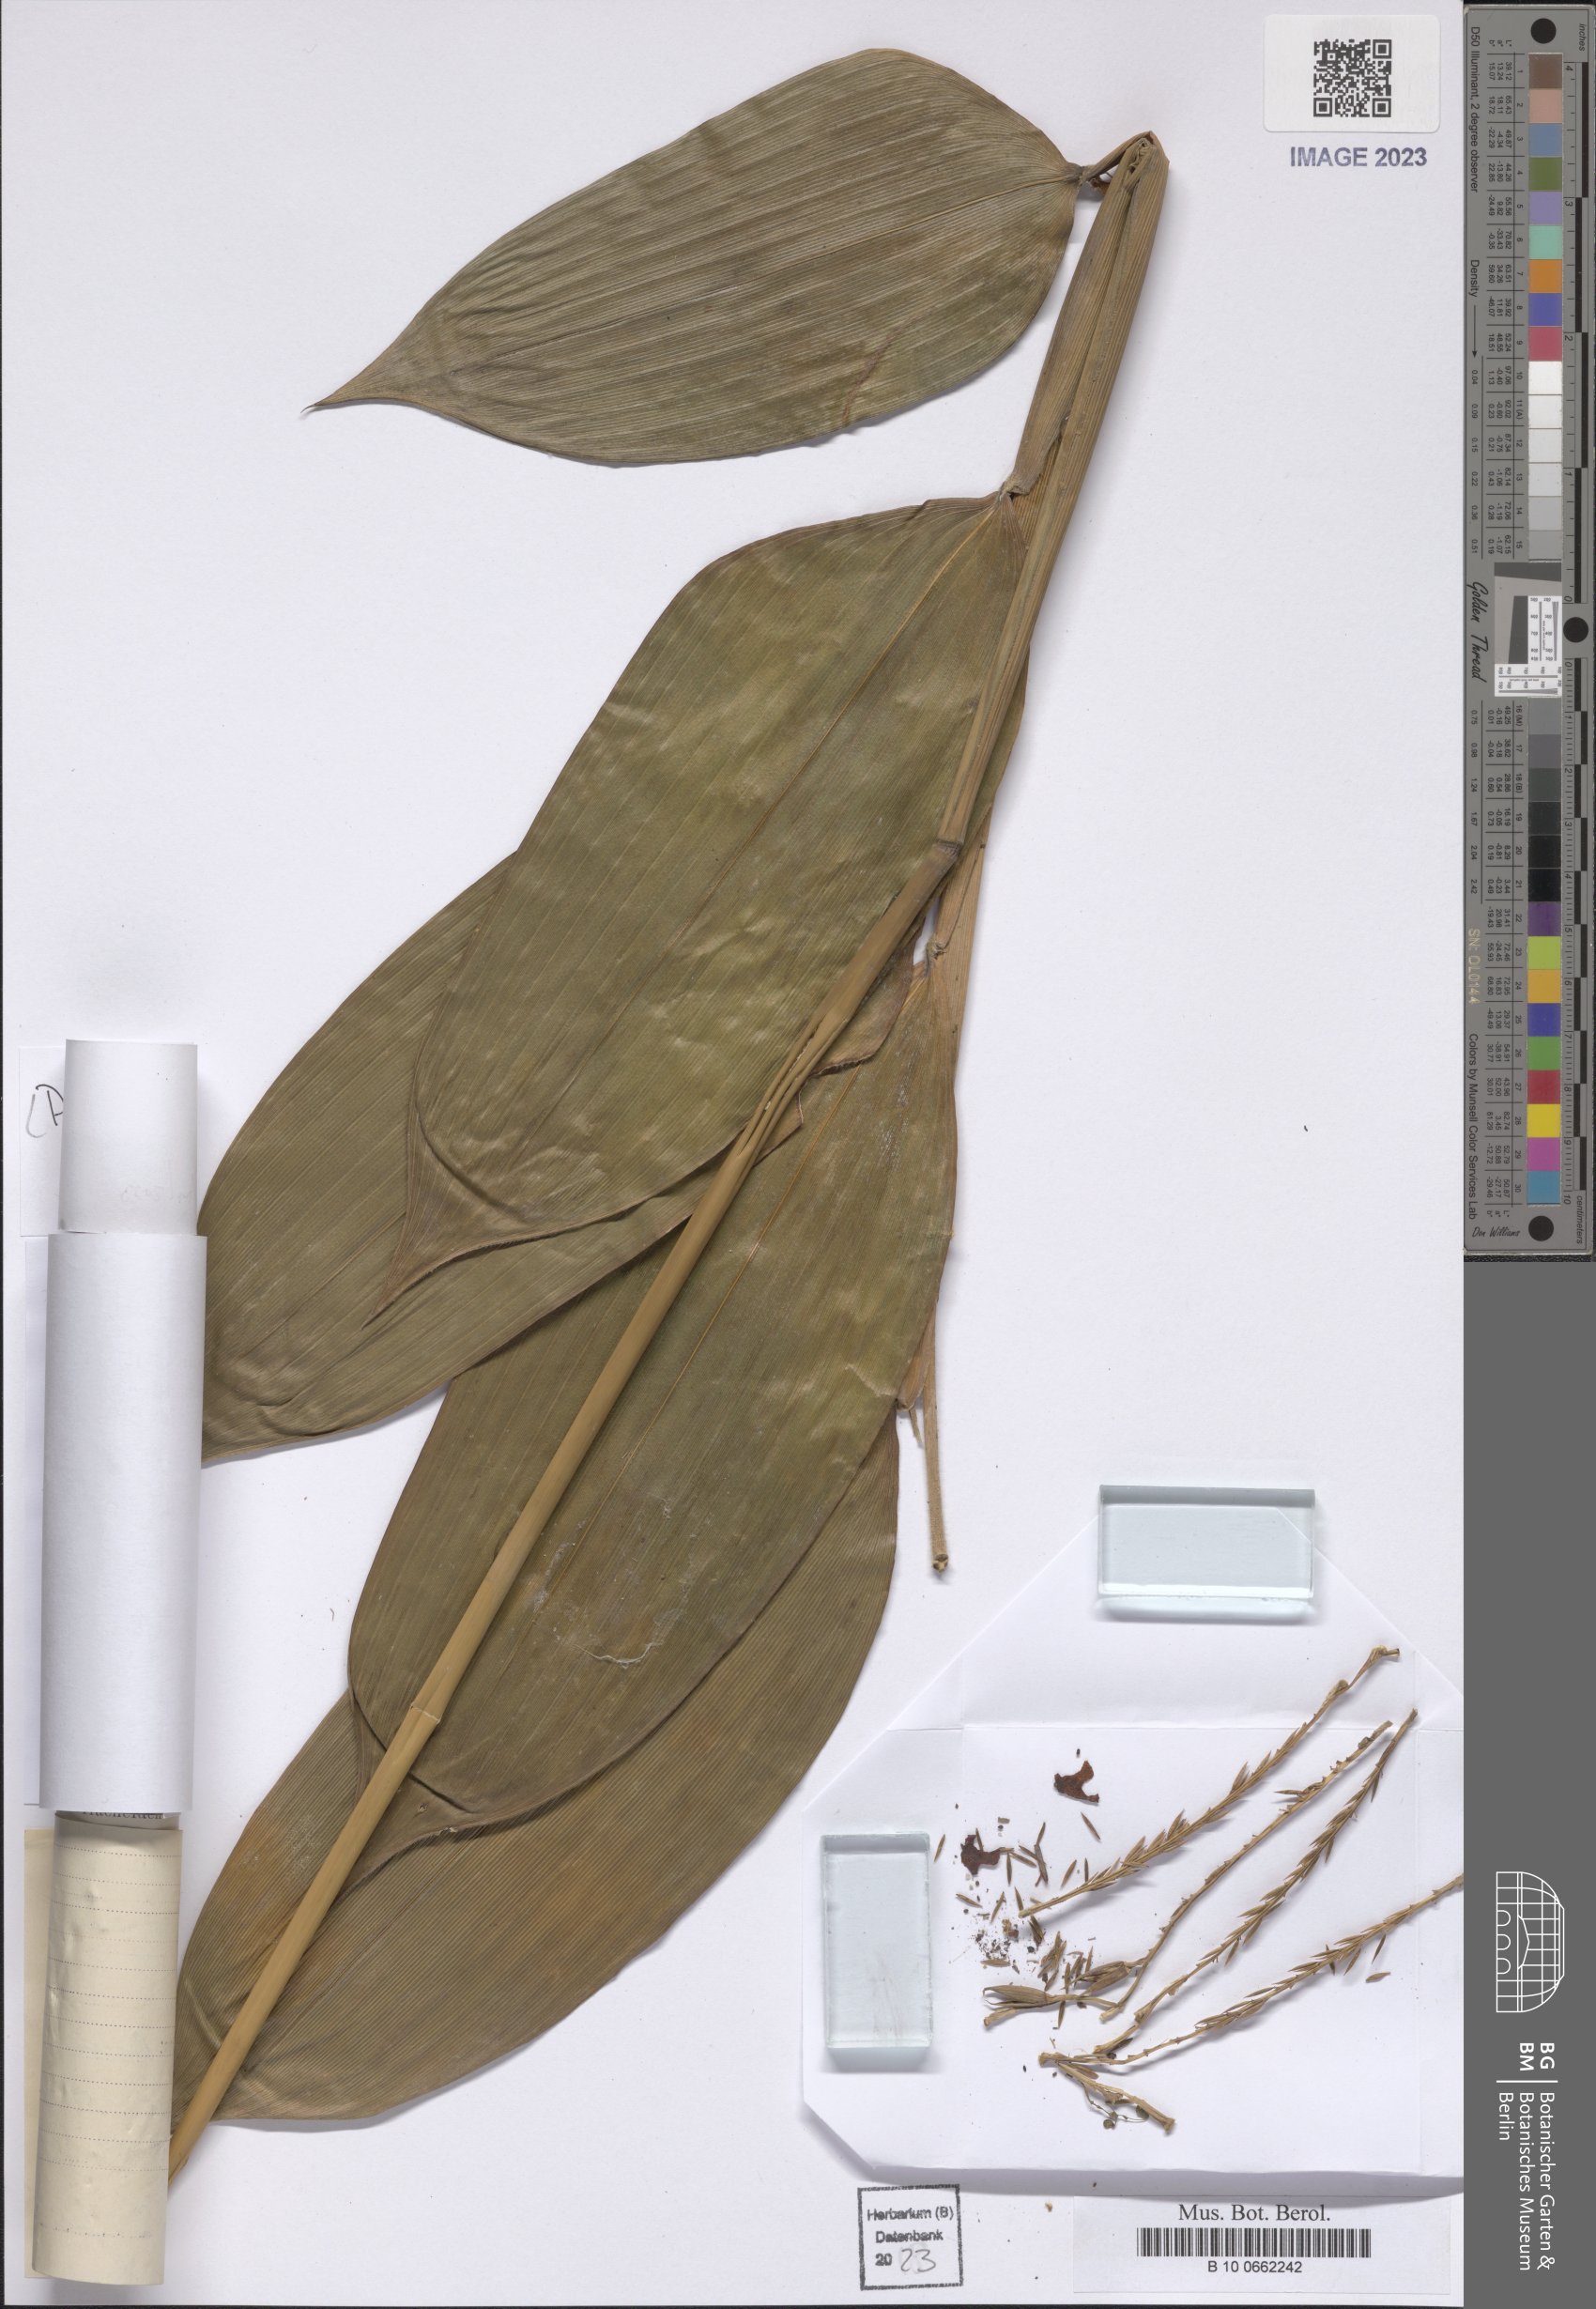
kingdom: Plantae
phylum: Tracheophyta
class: Liliopsida
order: Poales
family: Poaceae
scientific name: Poaceae
